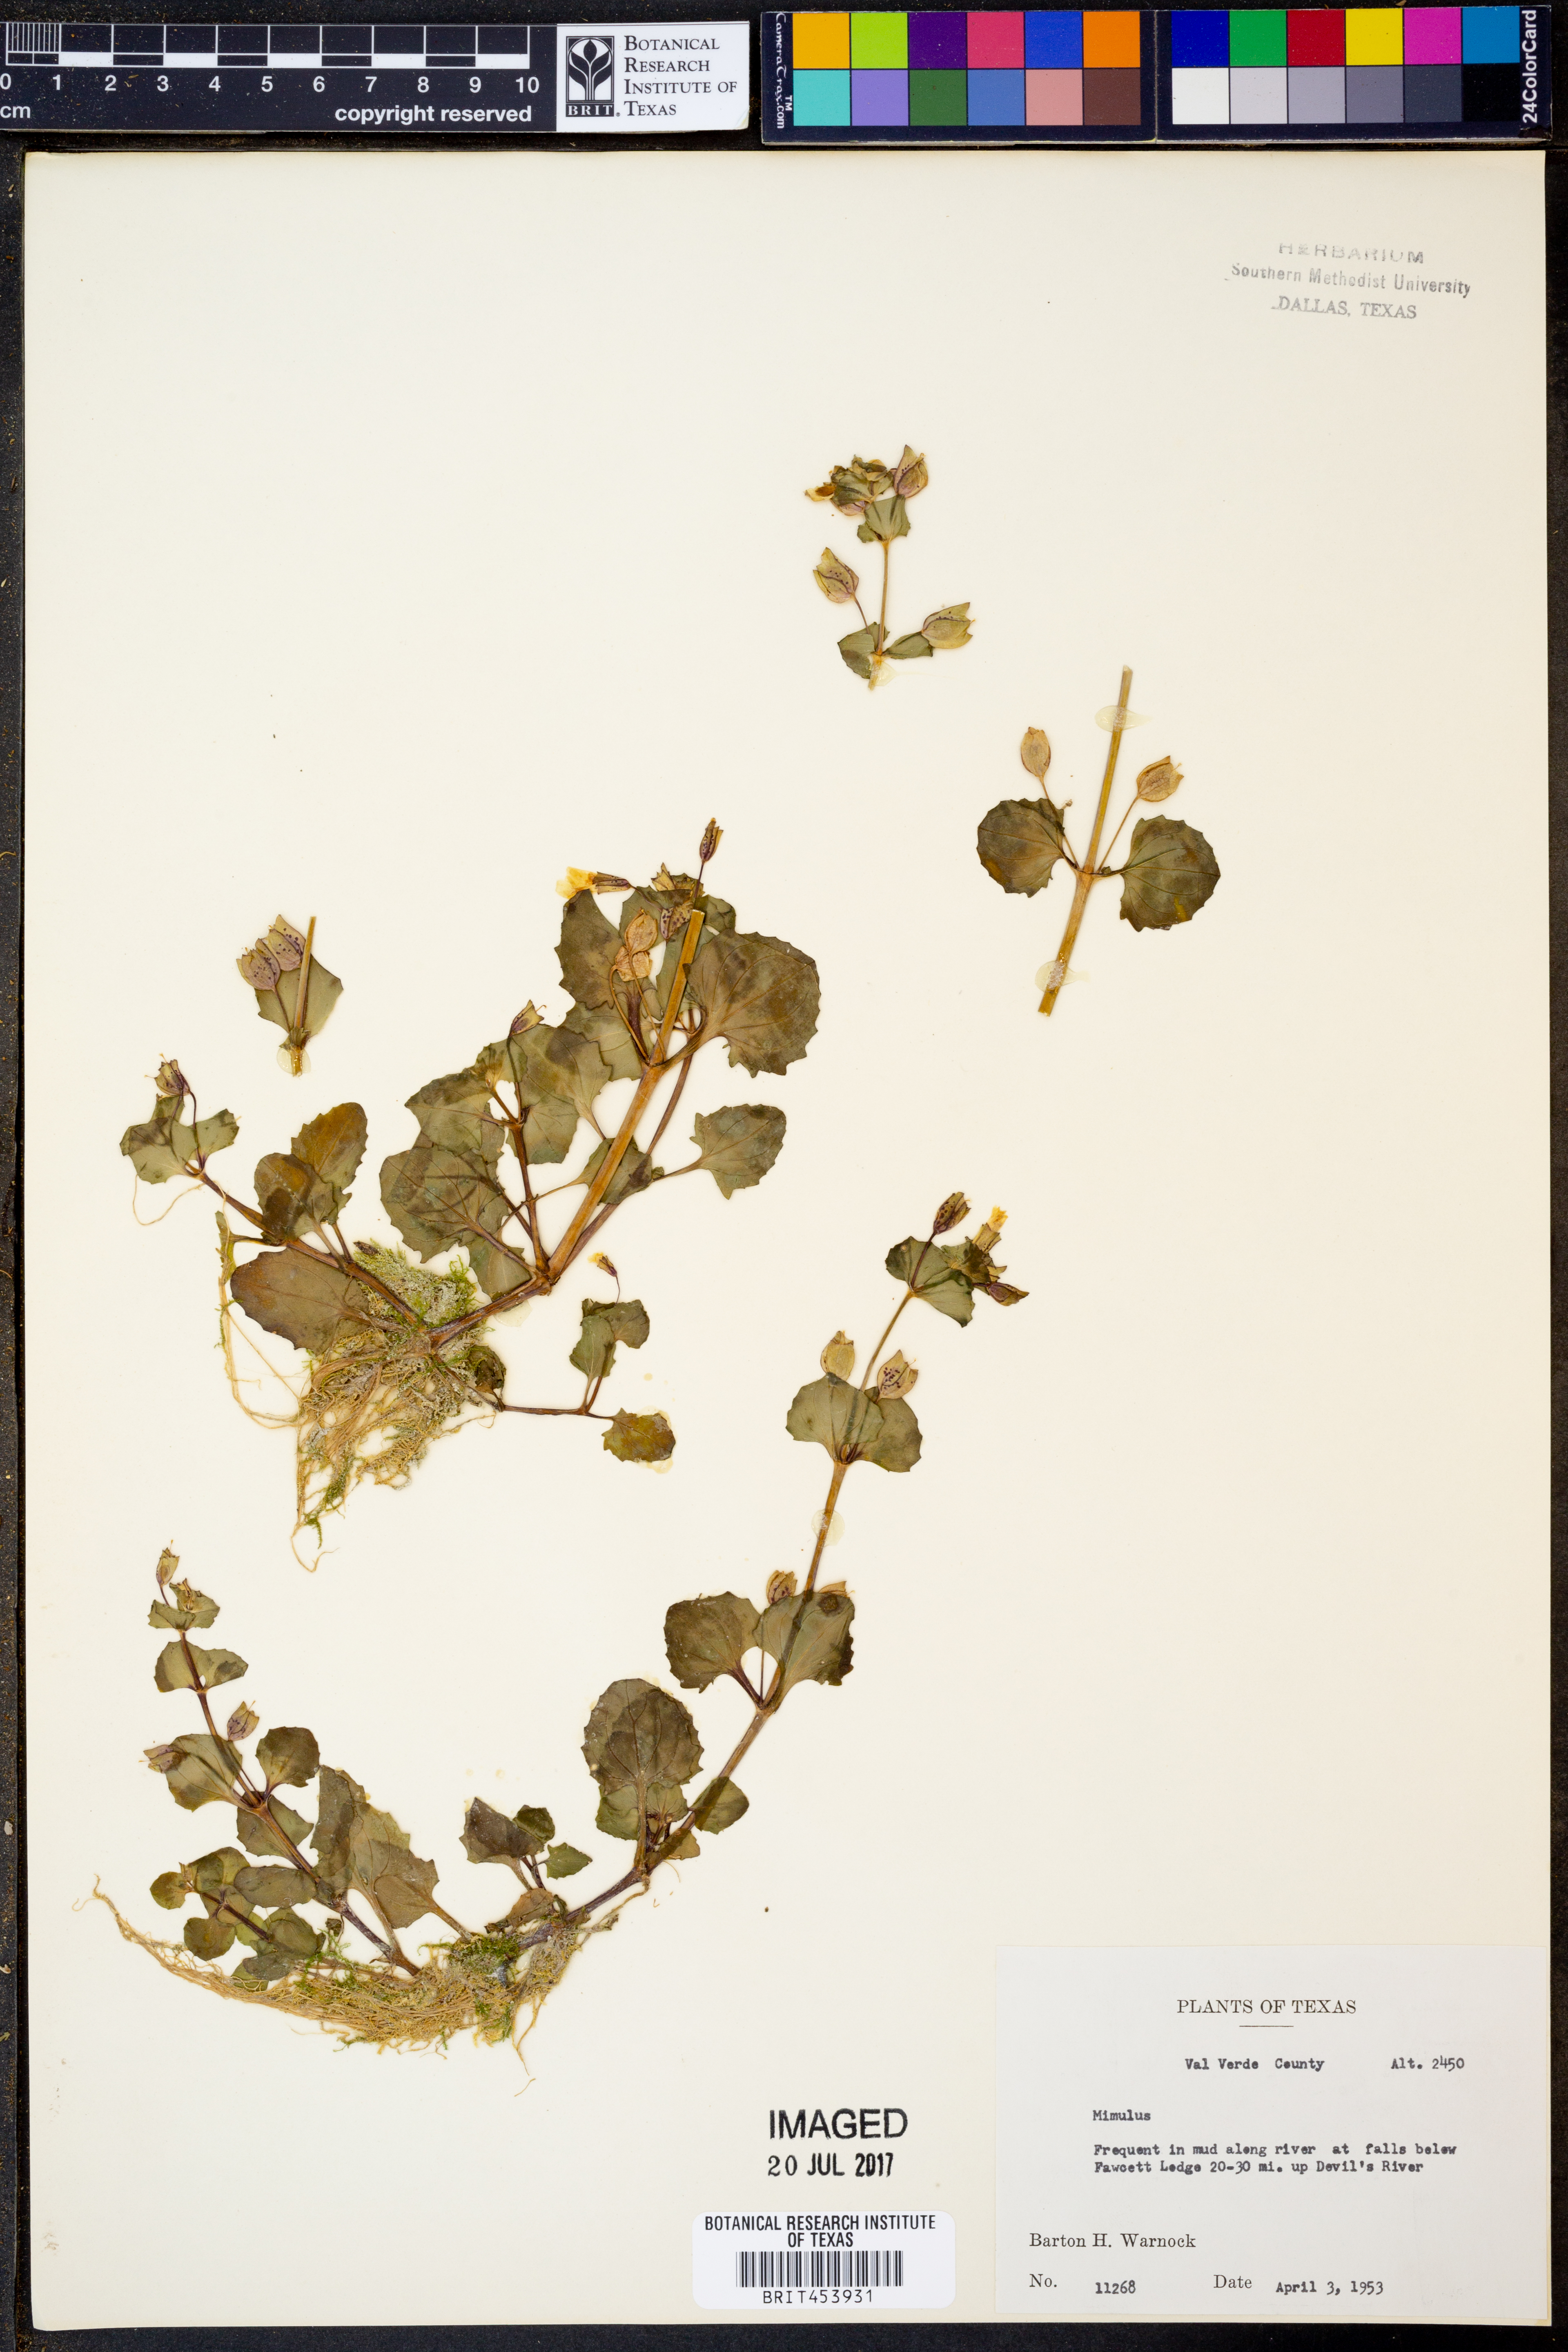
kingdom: Plantae
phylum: Tracheophyta
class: Magnoliopsida
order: Lamiales
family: Phrymaceae
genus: Mimulus
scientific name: Mimulus
